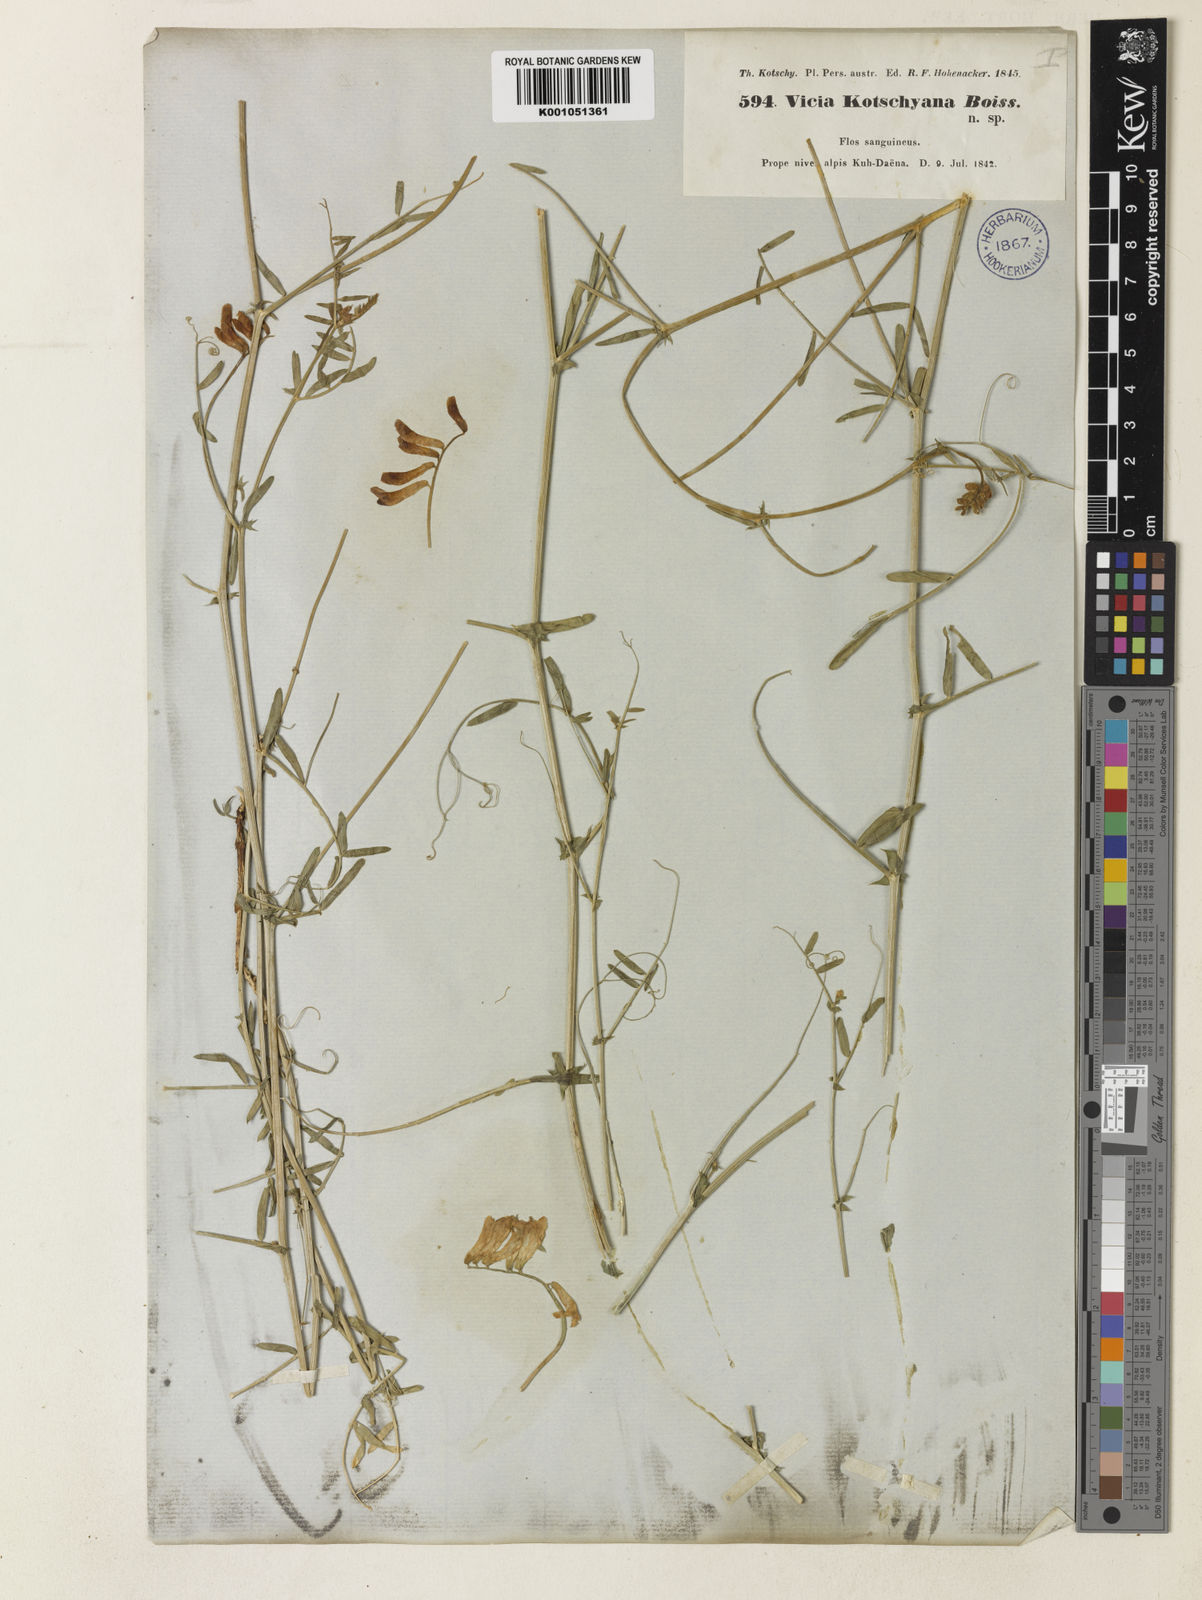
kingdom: Plantae
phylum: Tracheophyta
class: Magnoliopsida
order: Fabales
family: Fabaceae
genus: Vicia
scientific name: Vicia kotschyana
